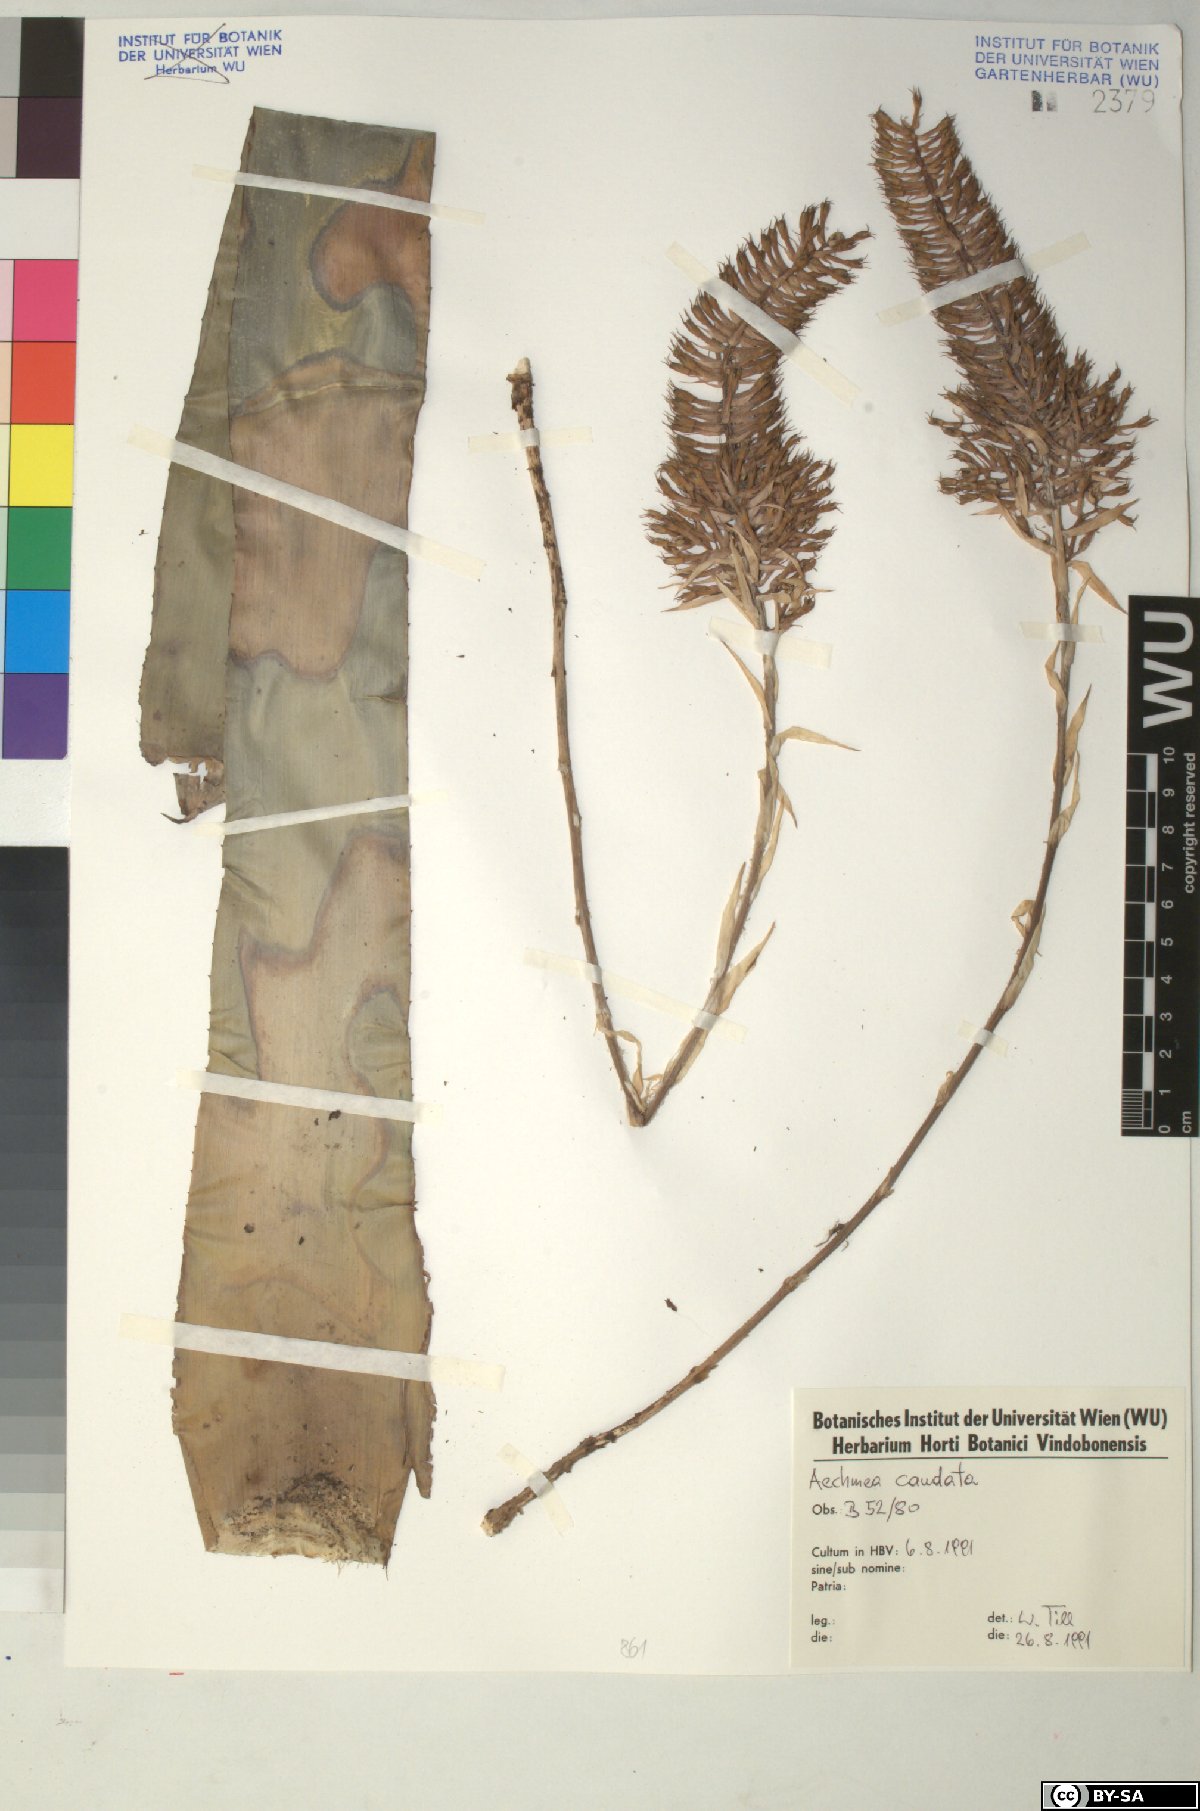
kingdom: Plantae
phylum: Tracheophyta
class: Liliopsida
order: Poales
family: Bromeliaceae
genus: Aechmea
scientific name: Aechmea
